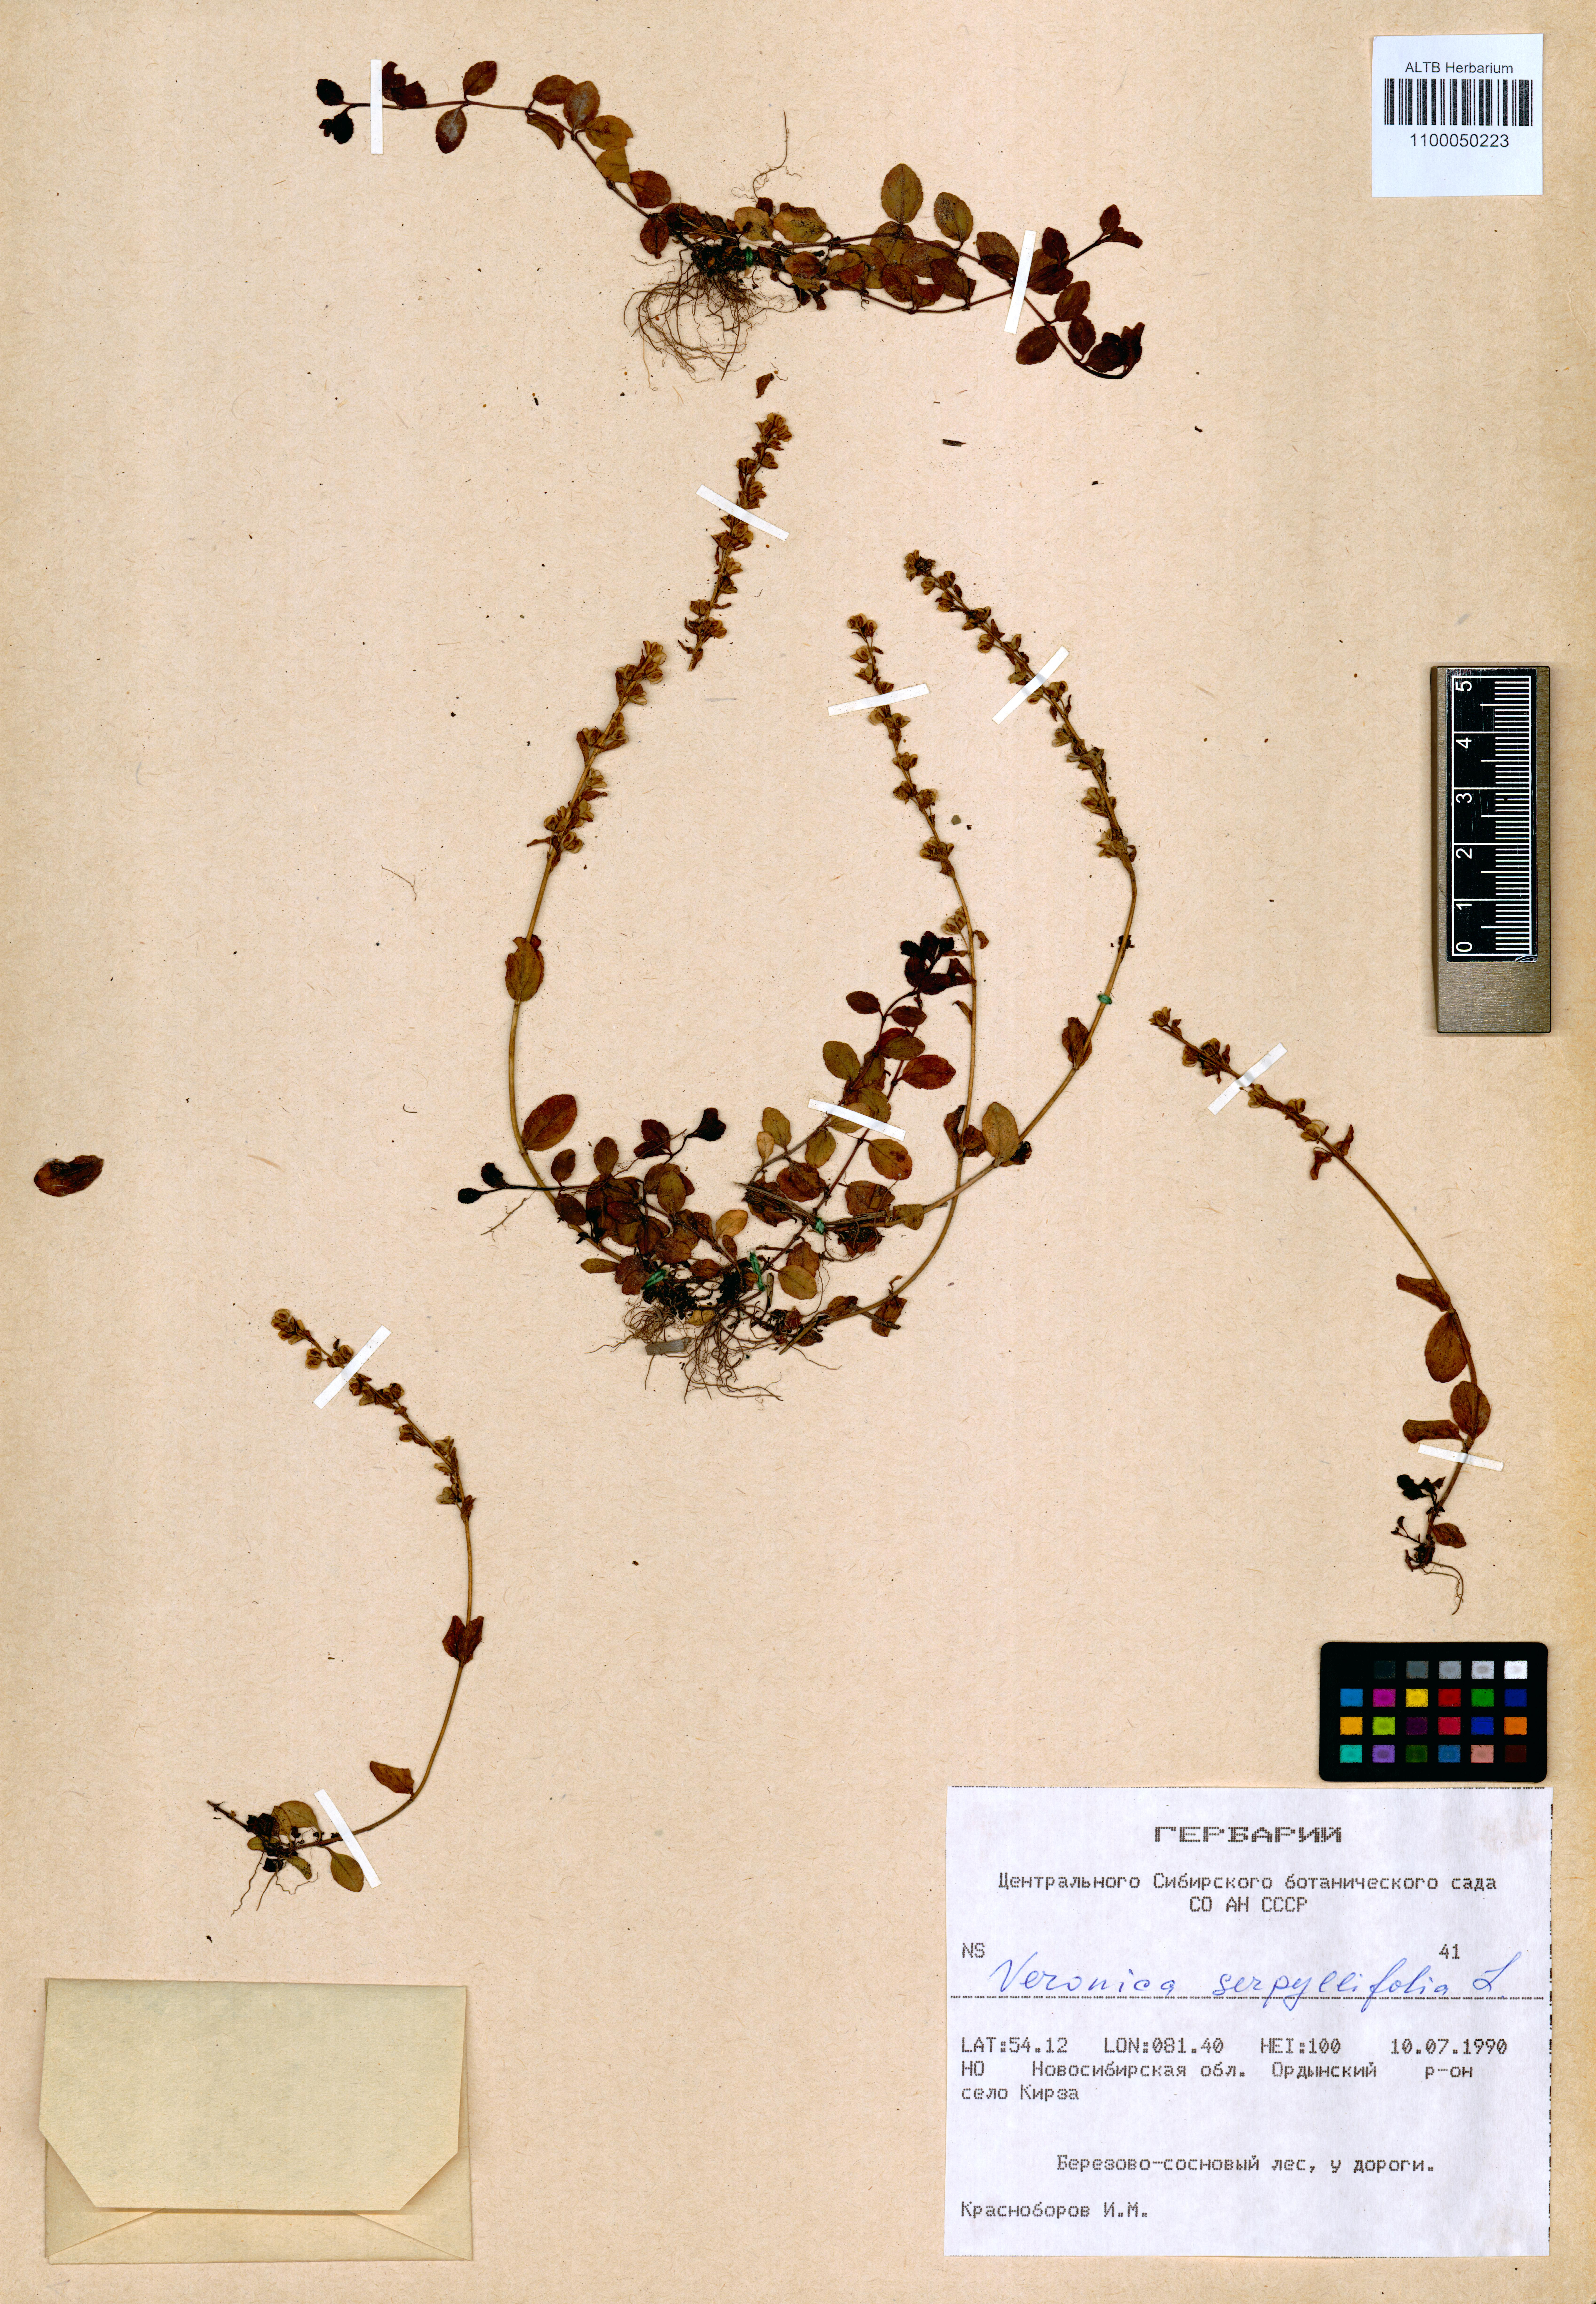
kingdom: Plantae
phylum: Tracheophyta
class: Magnoliopsida
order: Lamiales
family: Plantaginaceae
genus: Veronica
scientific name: Veronica serpyllifolia
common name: Thyme-leaved speedwell
